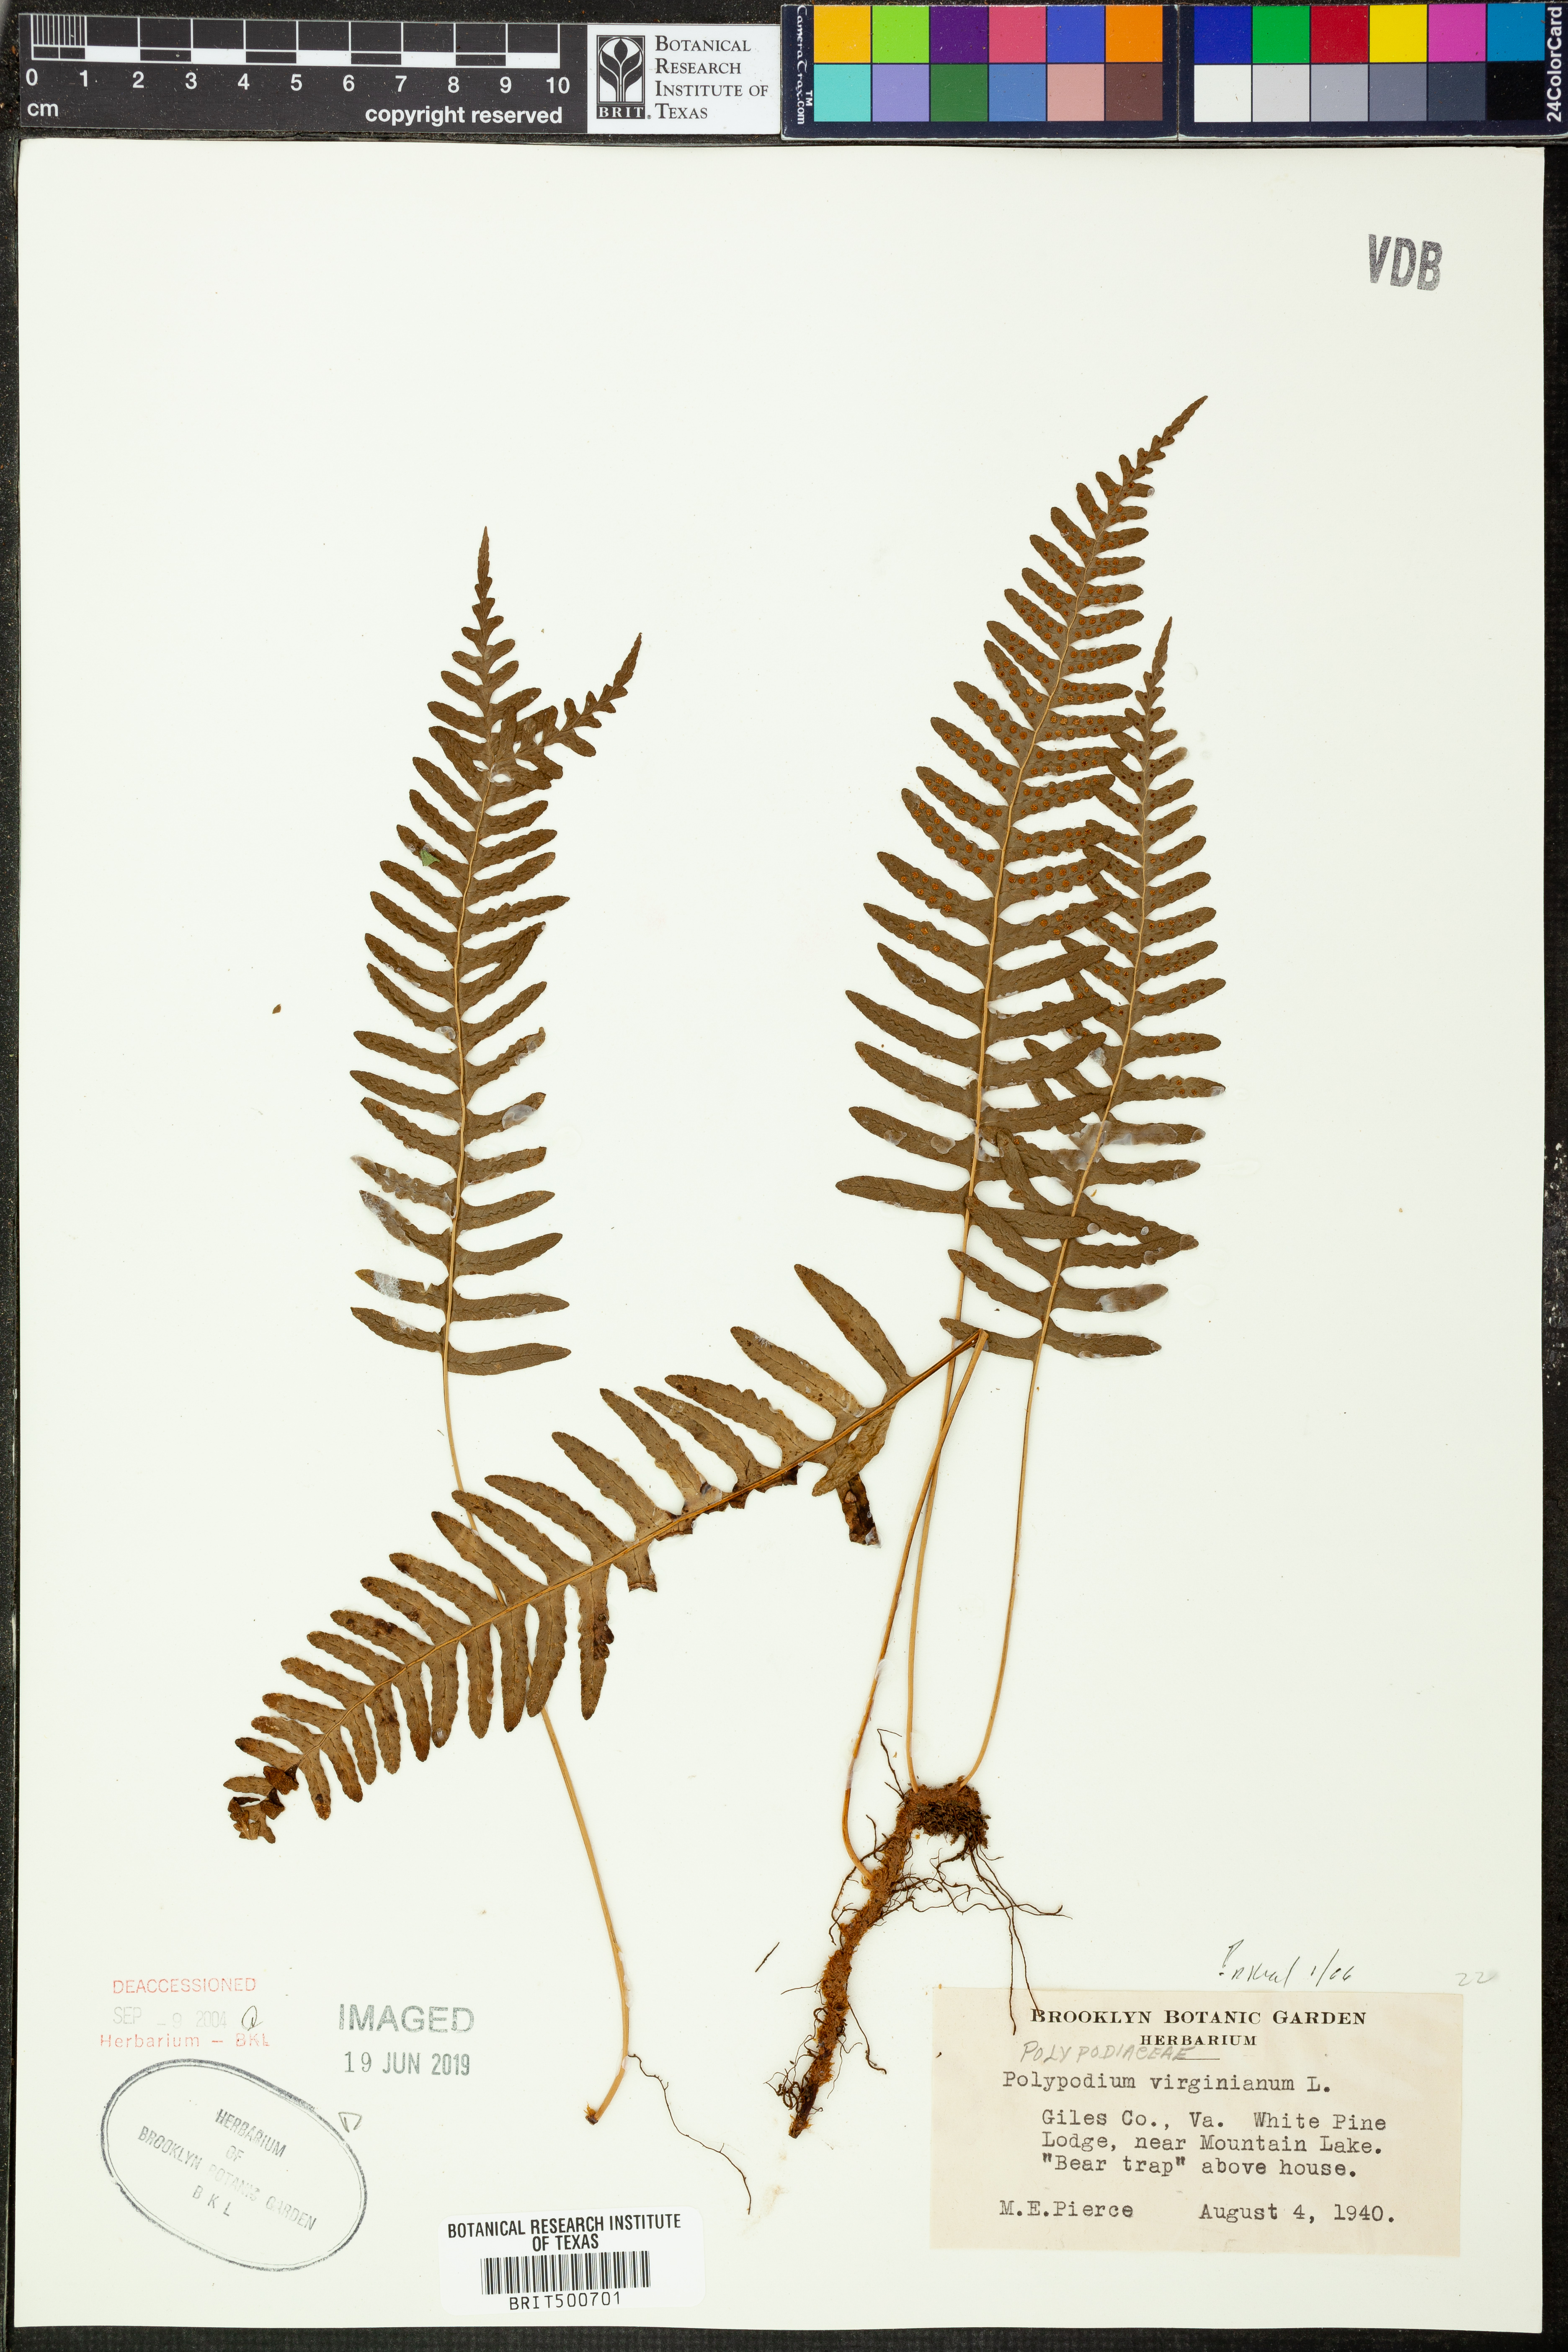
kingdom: Plantae
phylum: Tracheophyta
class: Polypodiopsida
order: Polypodiales
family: Polypodiaceae
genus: Polypodium
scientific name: Polypodium virginianum
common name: American wall fern
